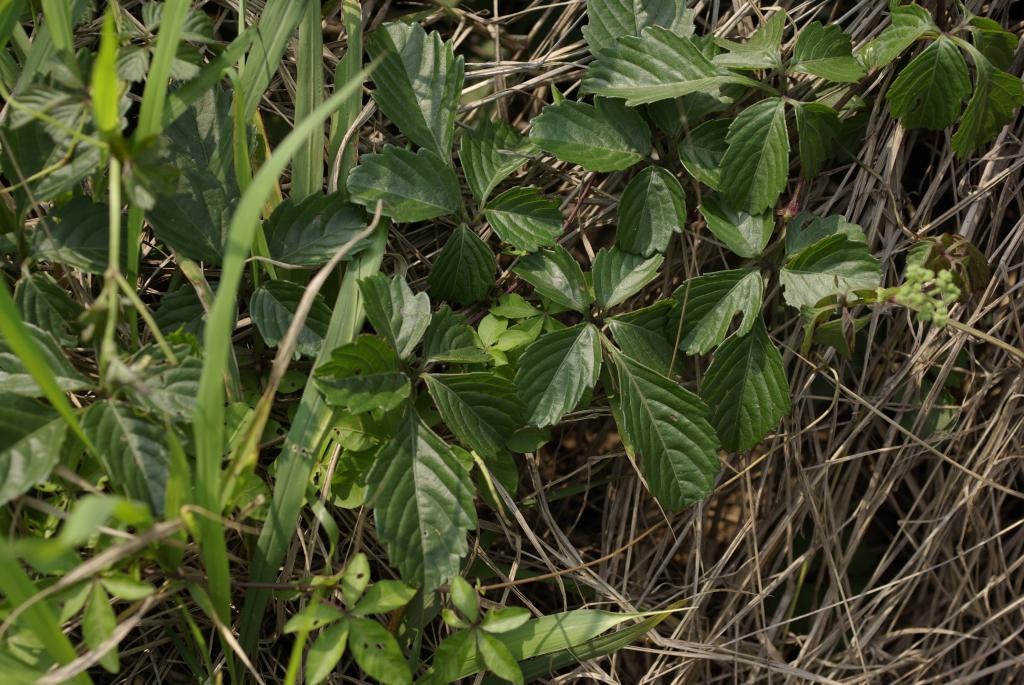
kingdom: Plantae
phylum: Tracheophyta
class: Magnoliopsida
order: Vitales
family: Vitaceae
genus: Causonis
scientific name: Causonis japonica
